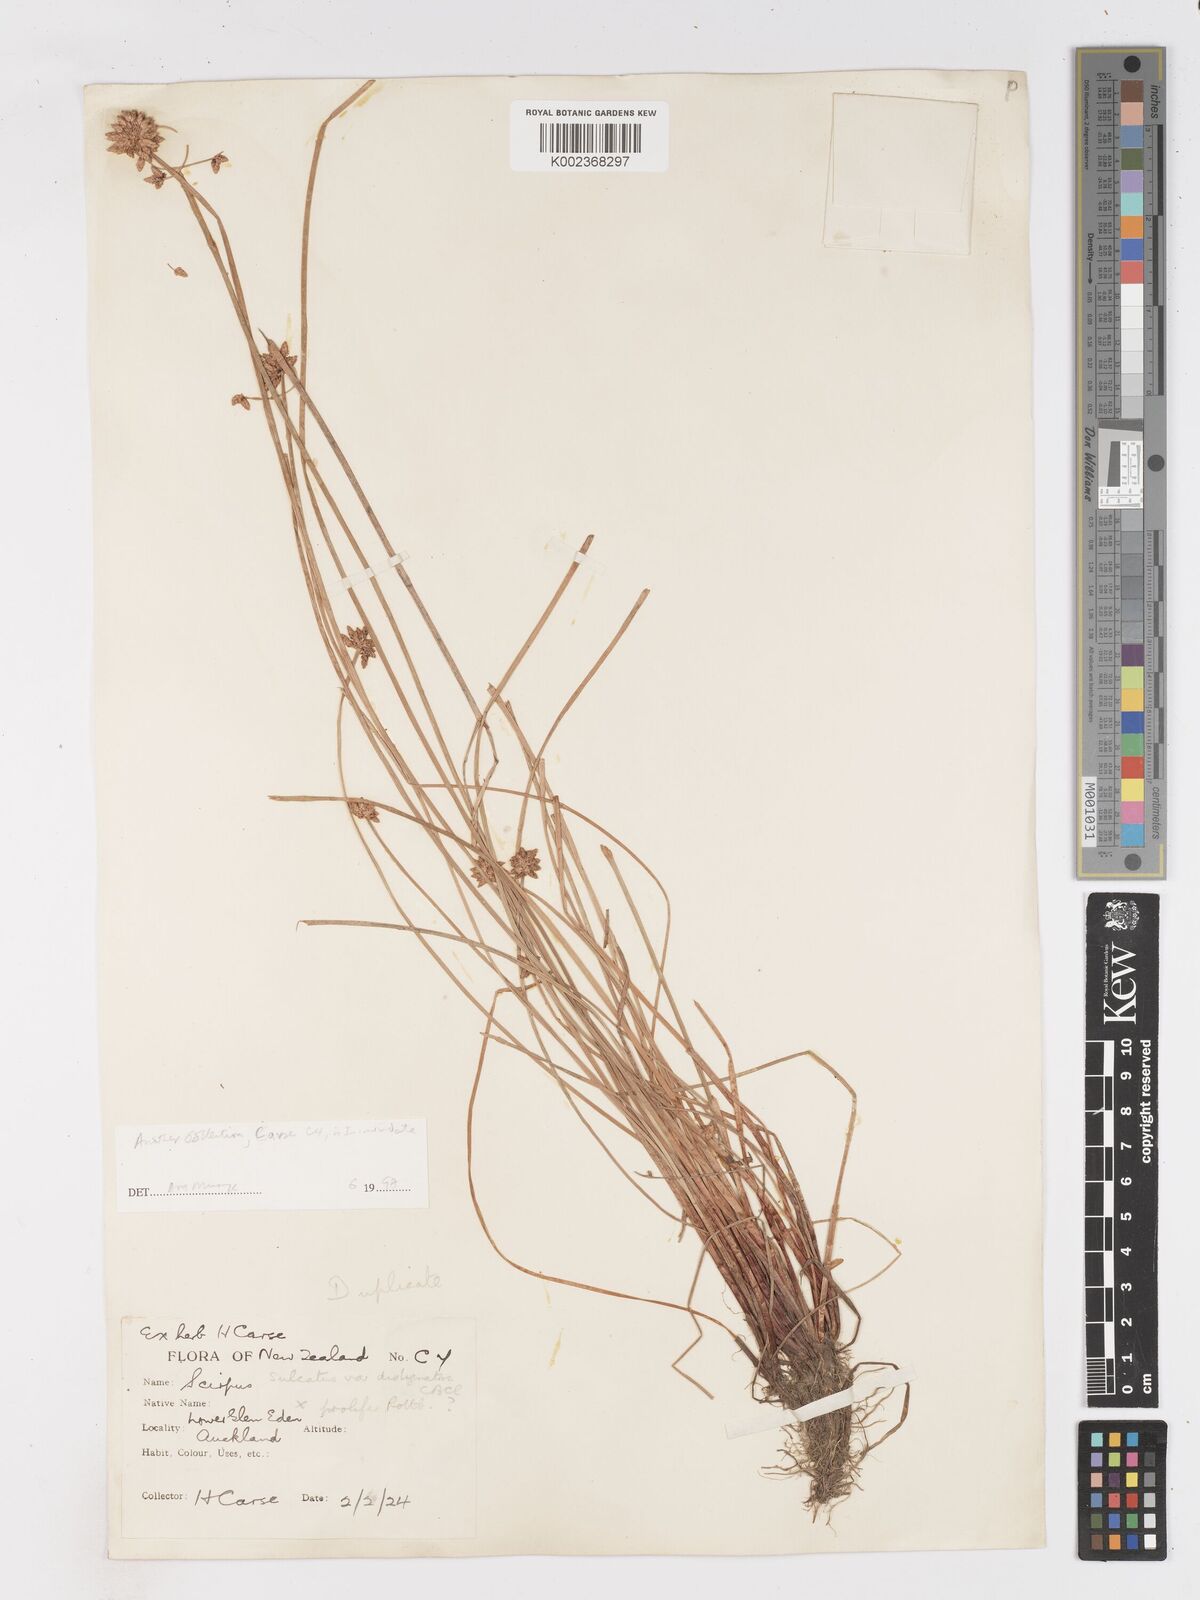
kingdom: Plantae
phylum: Tracheophyta
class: Liliopsida
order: Poales
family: Cyperaceae
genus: Isolepis
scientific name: Isolepis inundata
